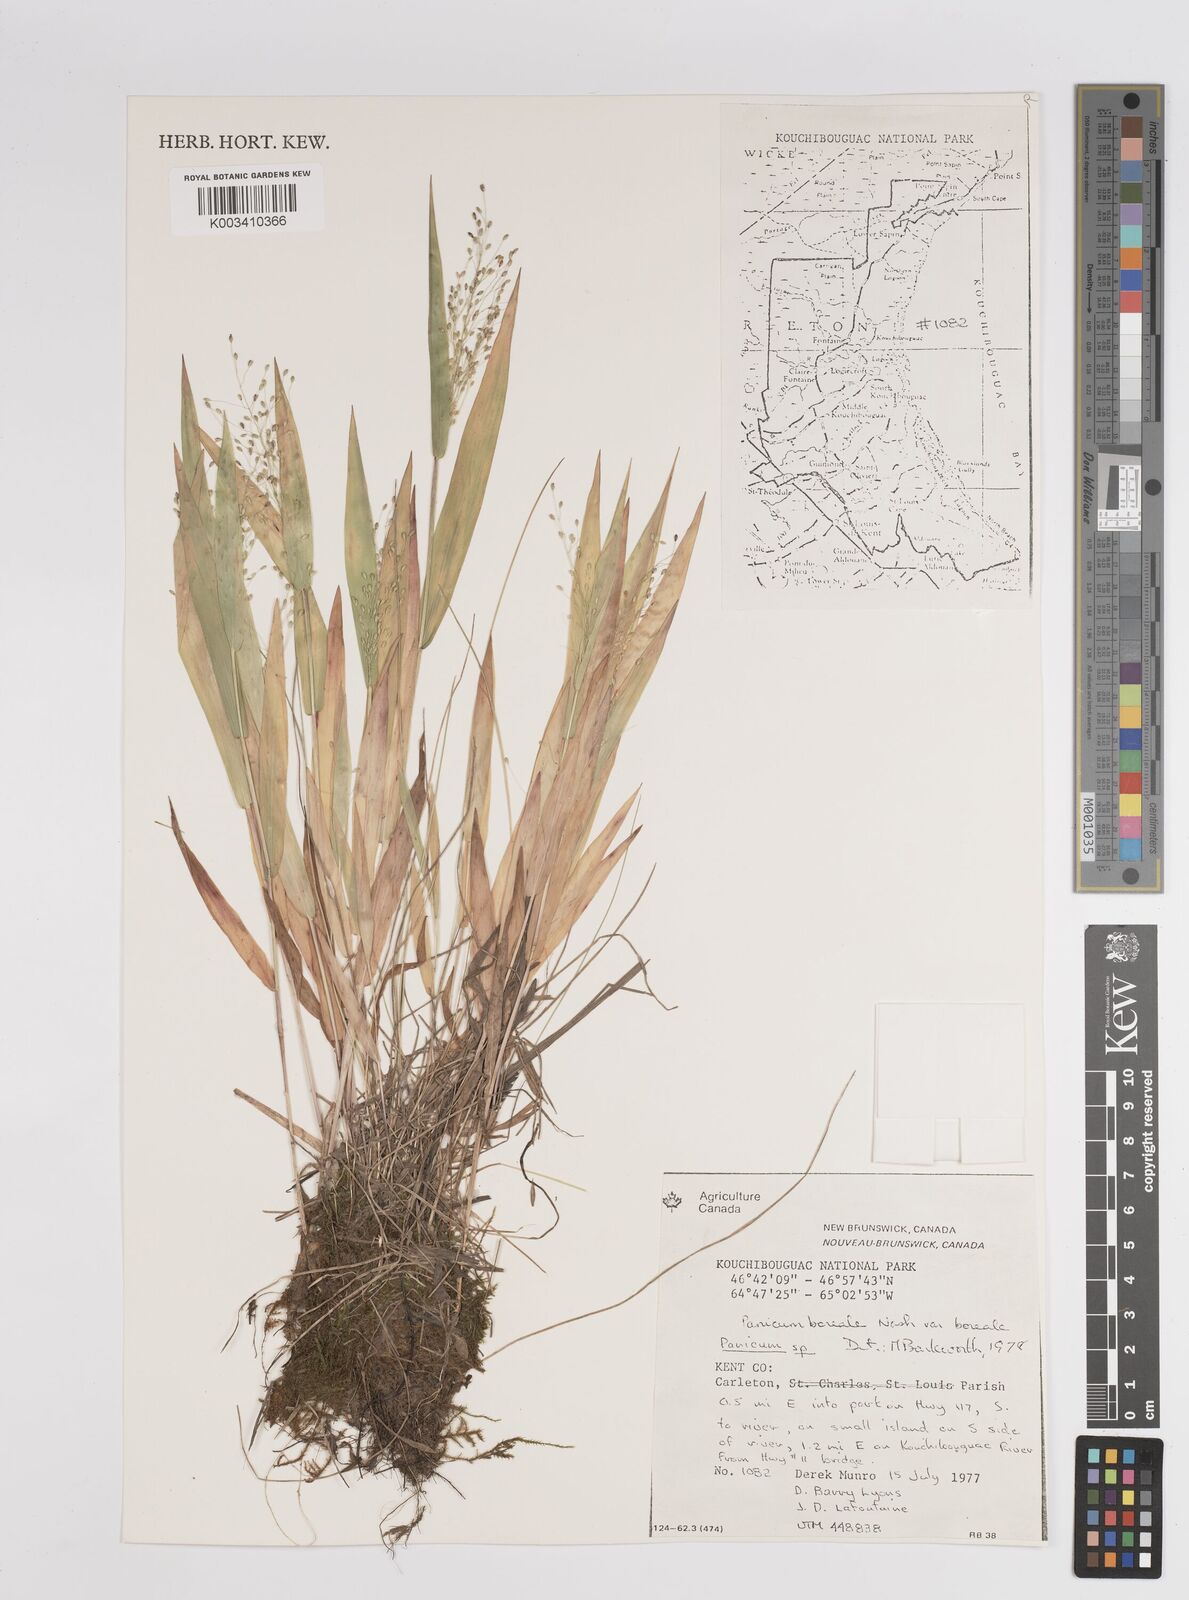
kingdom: Plantae
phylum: Tracheophyta
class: Liliopsida
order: Poales
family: Poaceae
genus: Dichanthelium
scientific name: Dichanthelium boreale
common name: Northern panicgrass
